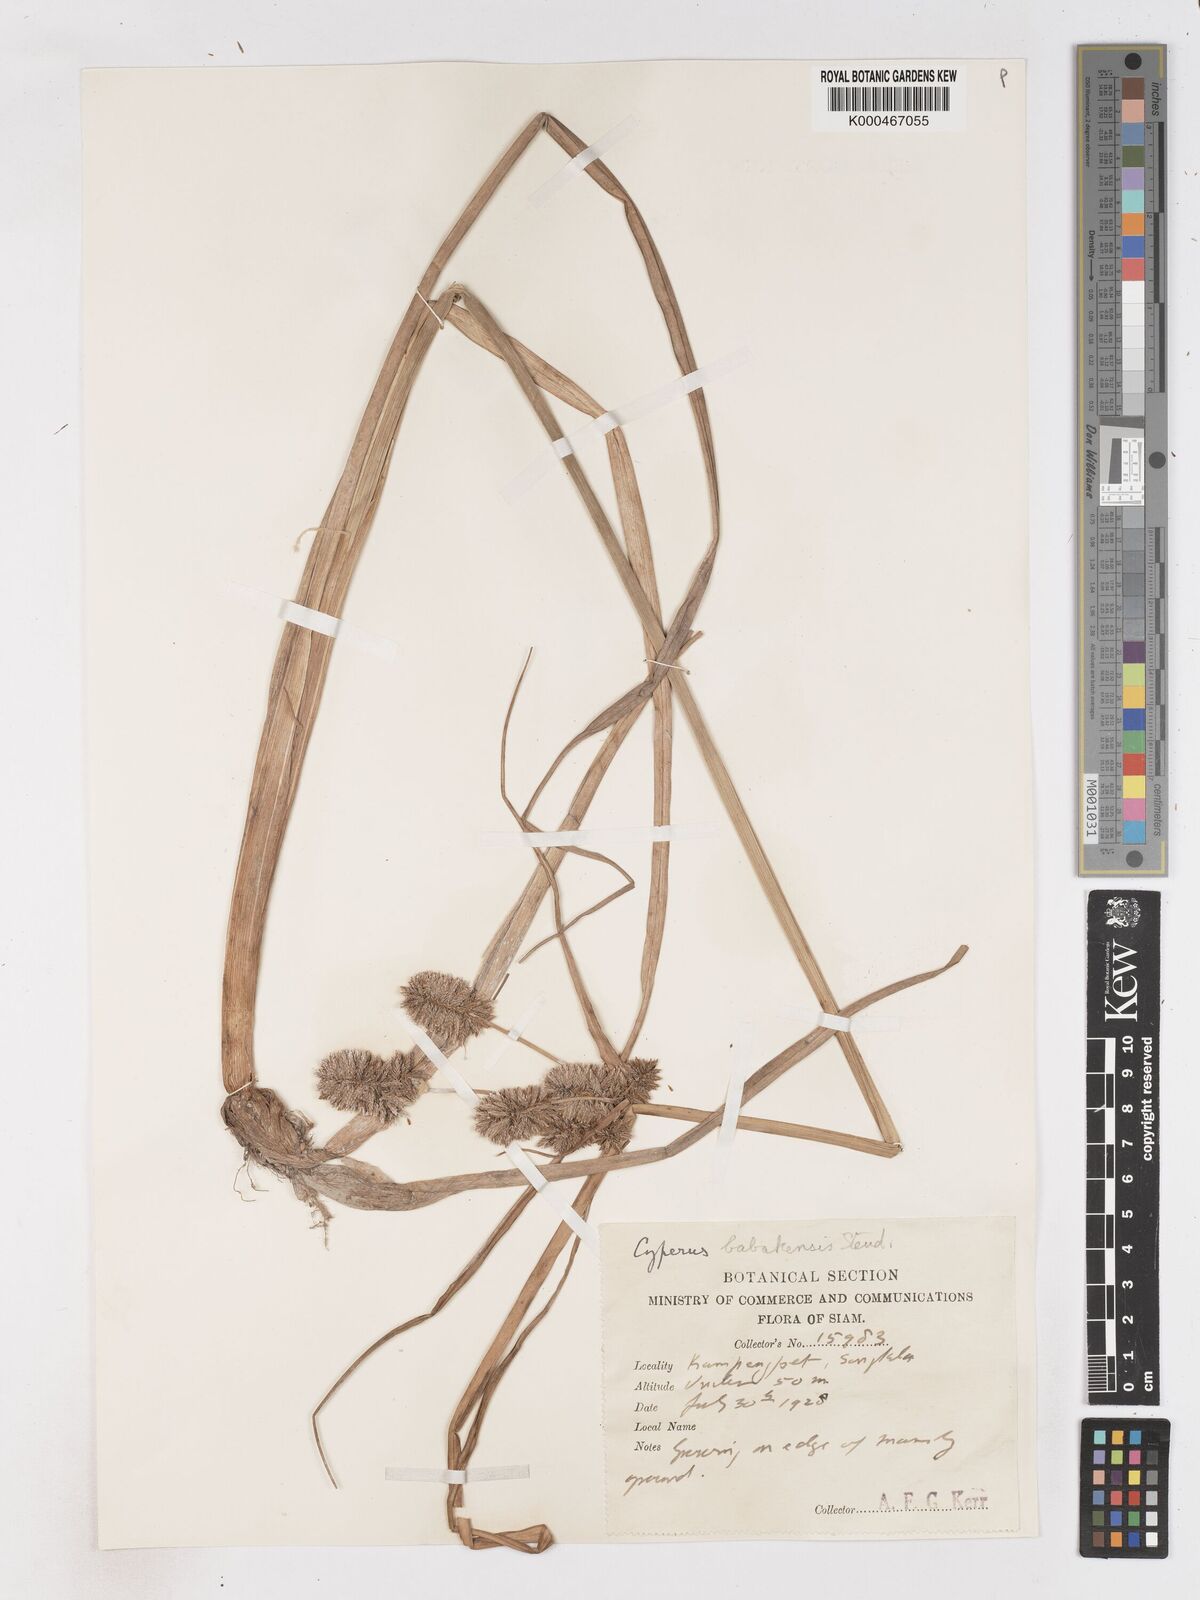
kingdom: Plantae
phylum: Tracheophyta
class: Liliopsida
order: Poales
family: Cyperaceae
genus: Cyperus
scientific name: Cyperus babakan
